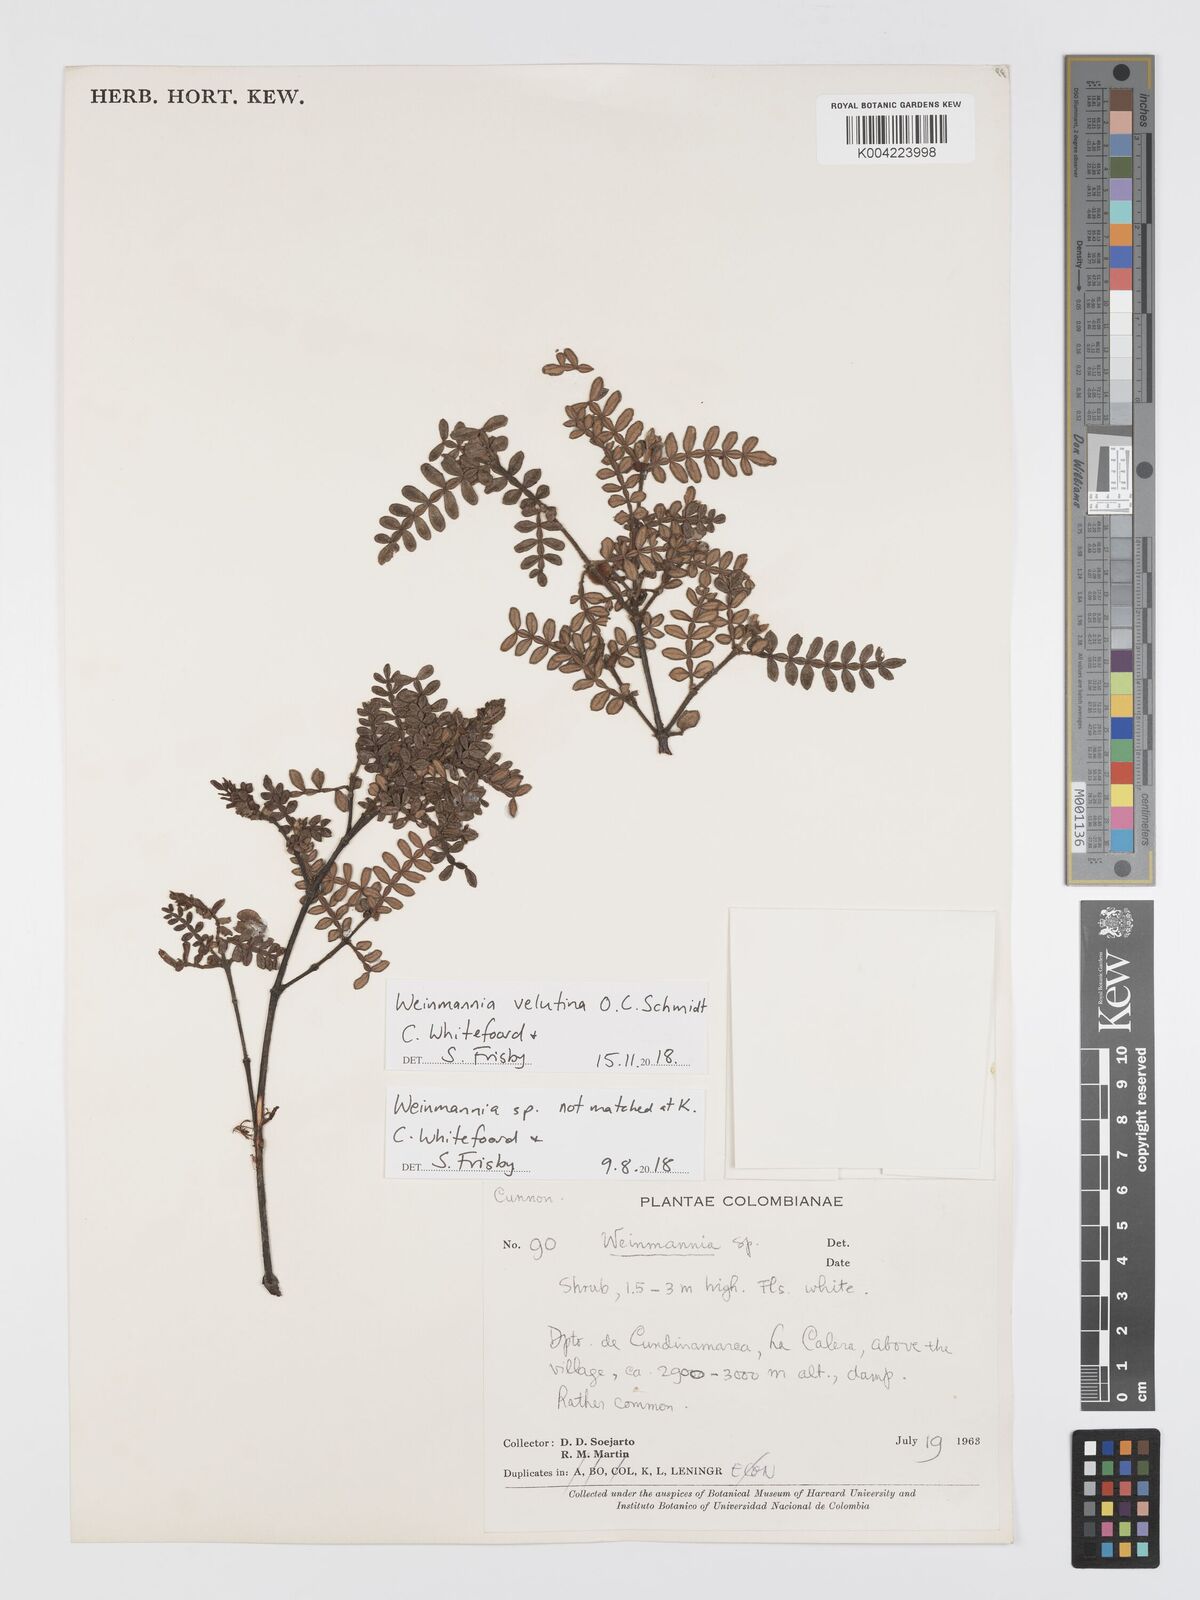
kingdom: Plantae
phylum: Tracheophyta
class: Magnoliopsida
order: Oxalidales
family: Cunoniaceae
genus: Weinmannia
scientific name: Weinmannia velutina
